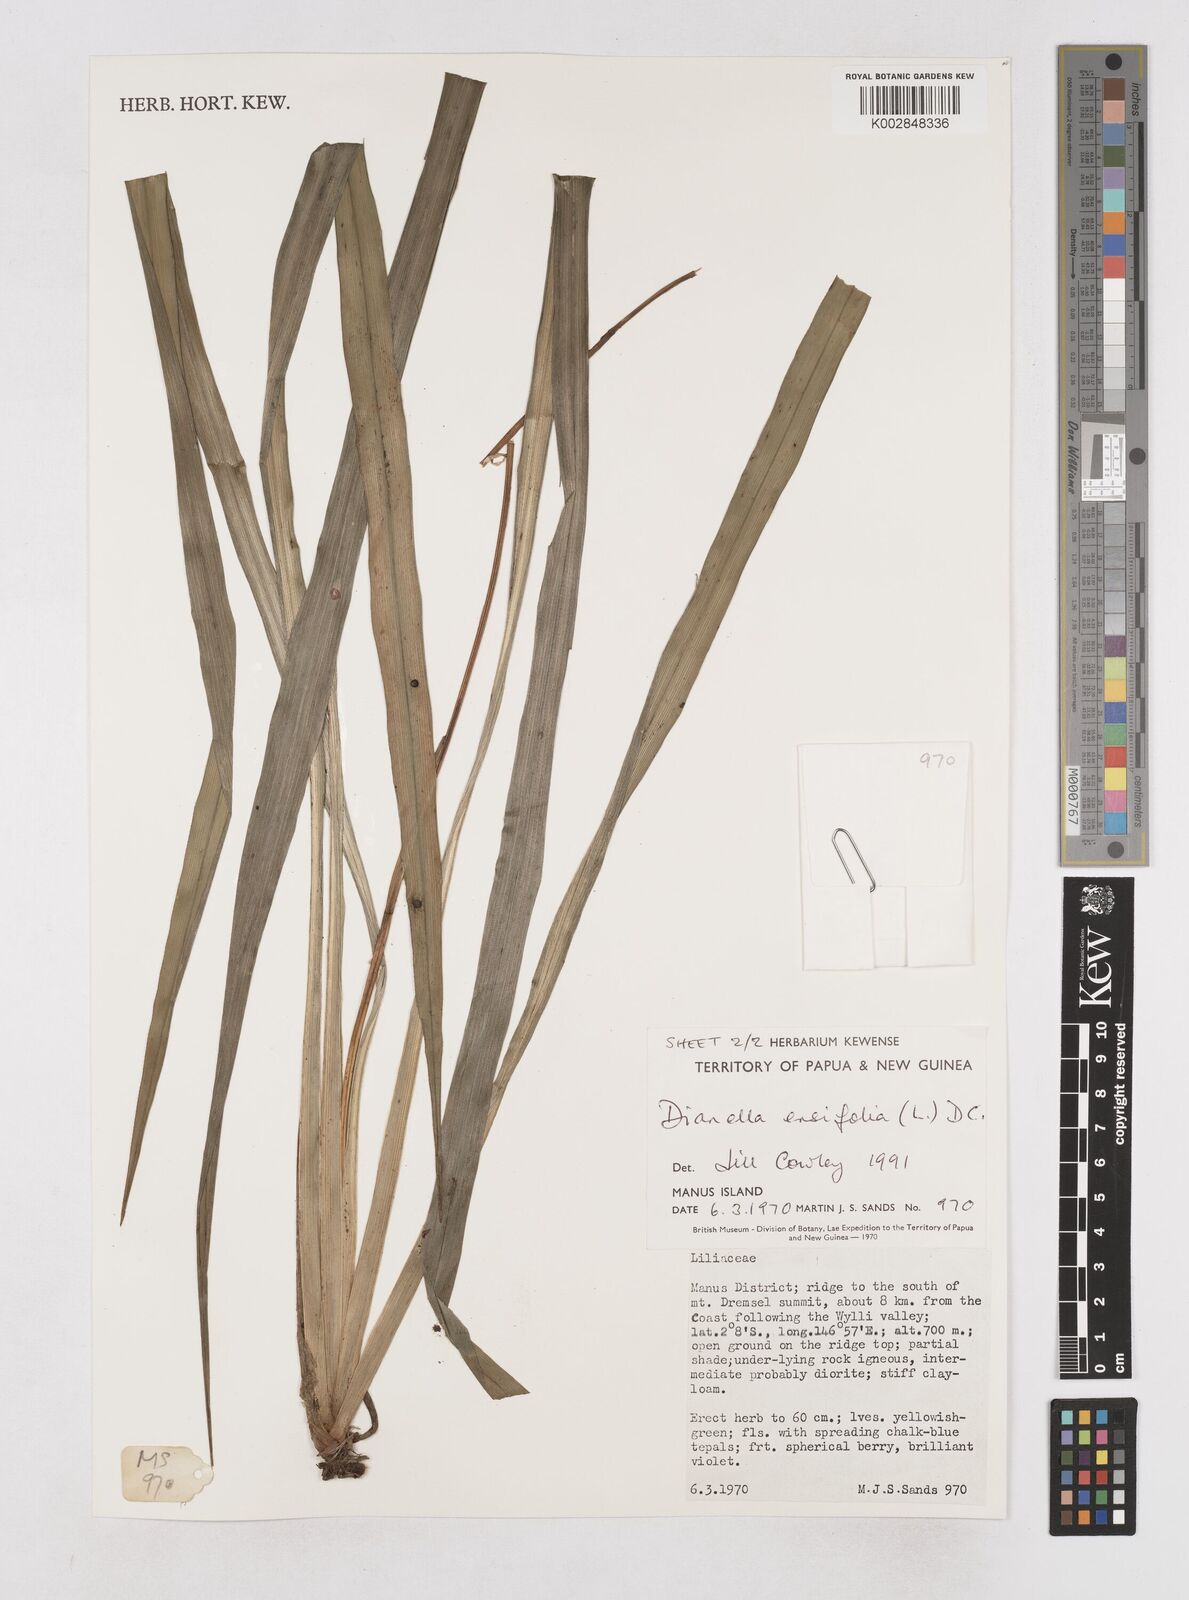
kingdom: Plantae
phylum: Tracheophyta
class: Liliopsida
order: Asparagales
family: Asphodelaceae
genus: Dianella
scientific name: Dianella ensifolia
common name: New zealand lilyplant
